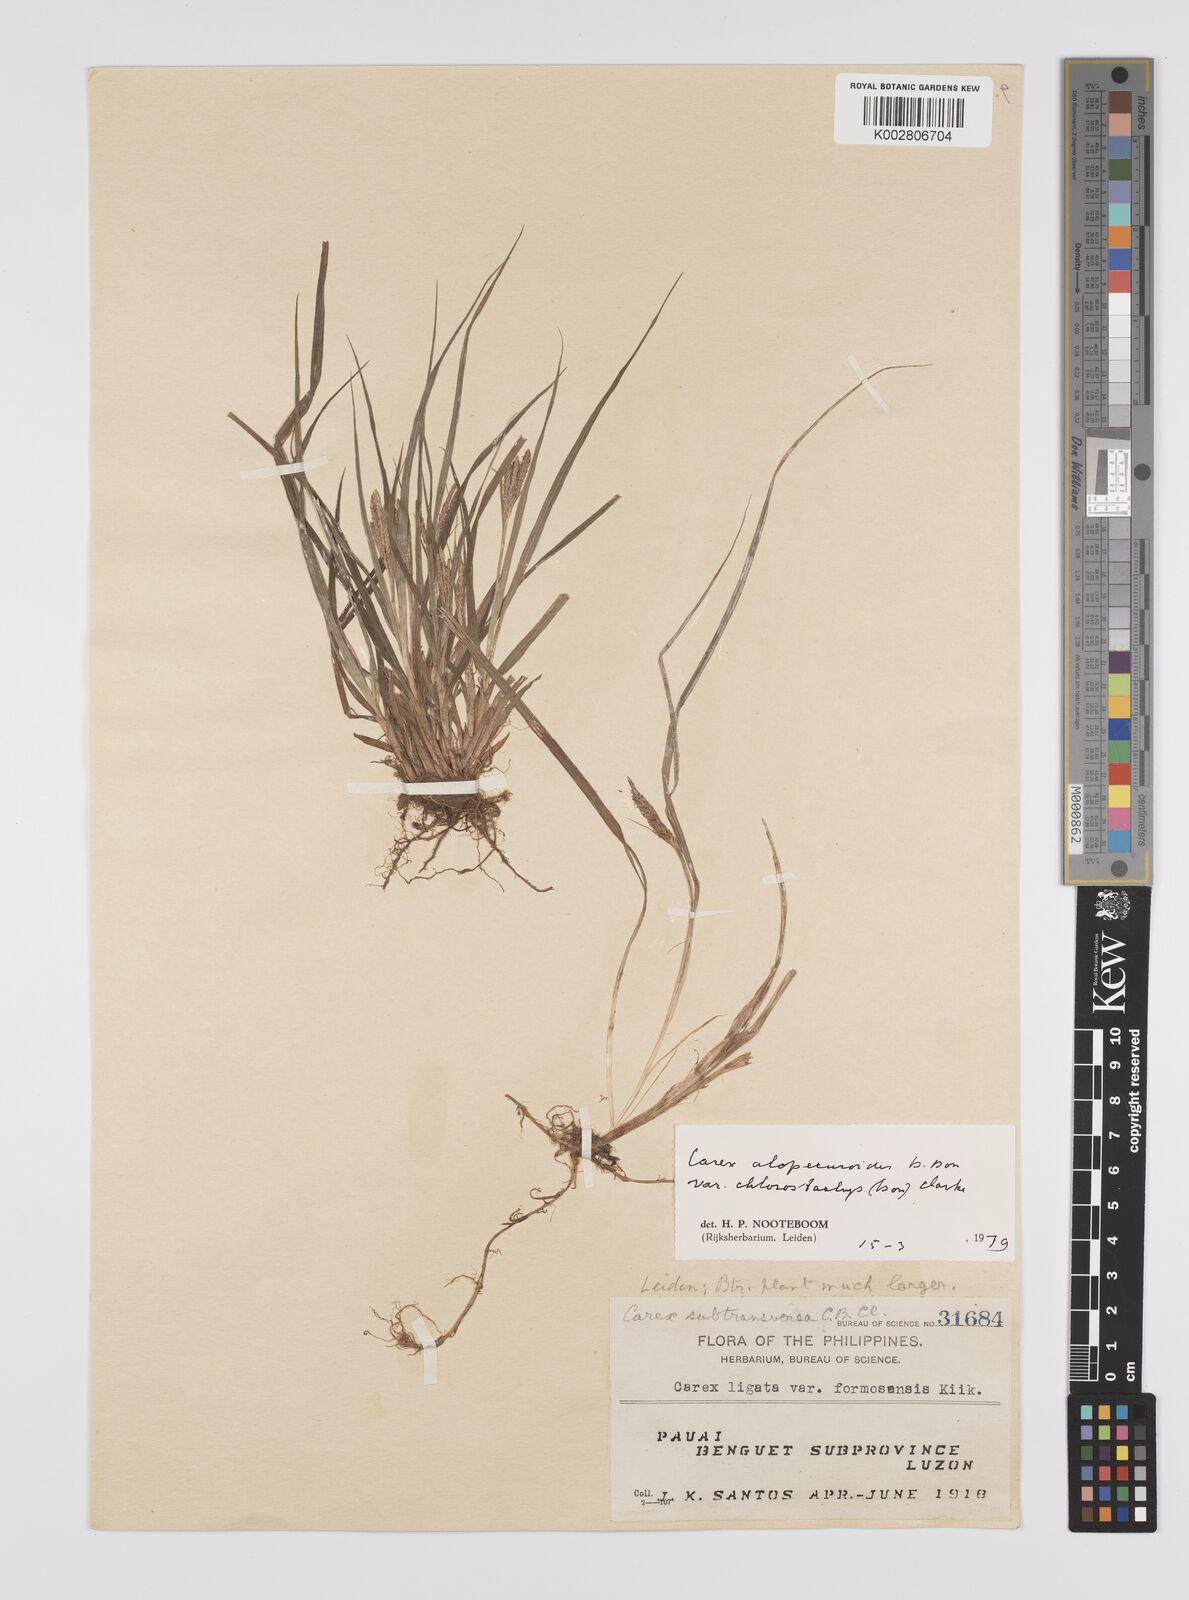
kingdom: Plantae
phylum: Tracheophyta
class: Liliopsida
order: Poales
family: Cyperaceae
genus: Carex
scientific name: Carex alopecuroides
